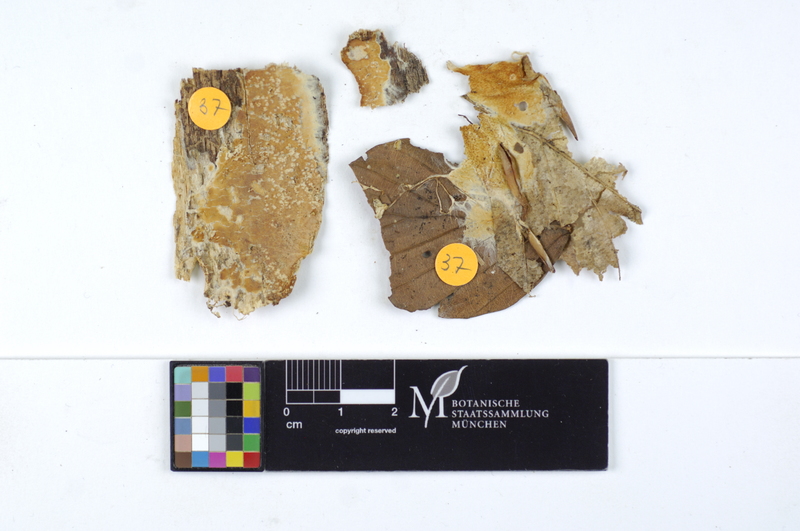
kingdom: Plantae
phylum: Tracheophyta
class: Magnoliopsida
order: Fagales
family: Fagaceae
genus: Fagus
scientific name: Fagus sylvatica
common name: Beech
